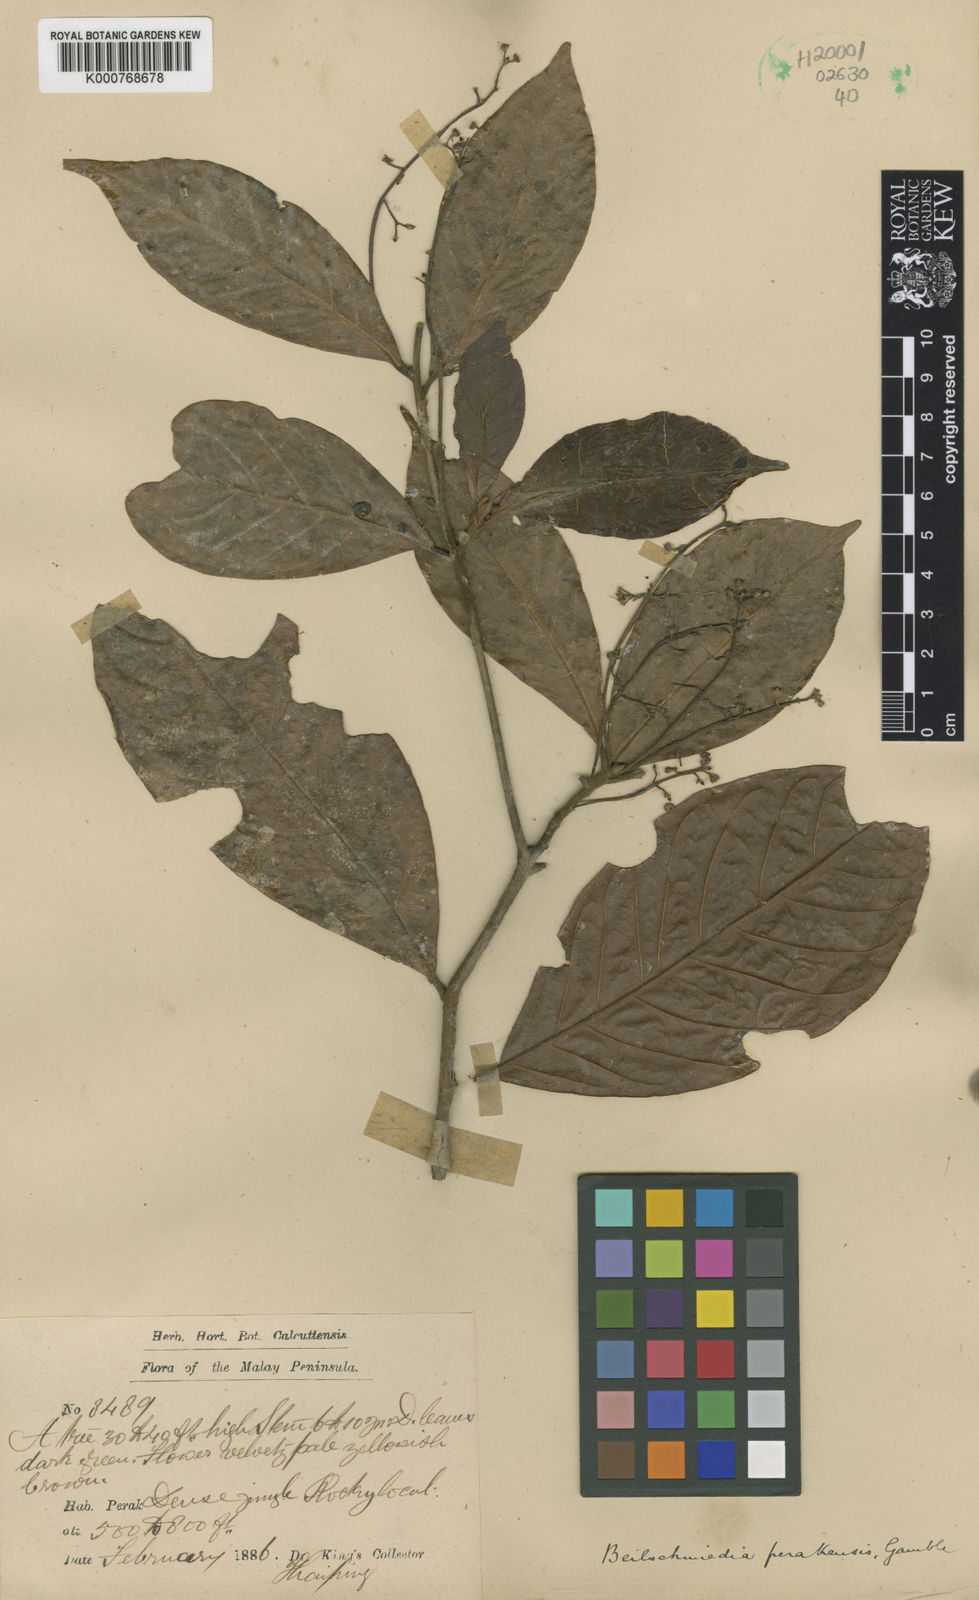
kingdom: Plantae
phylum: Tracheophyta
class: Magnoliopsida
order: Laurales
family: Lauraceae
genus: Beilschmiedia
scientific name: Beilschmiedia madang
